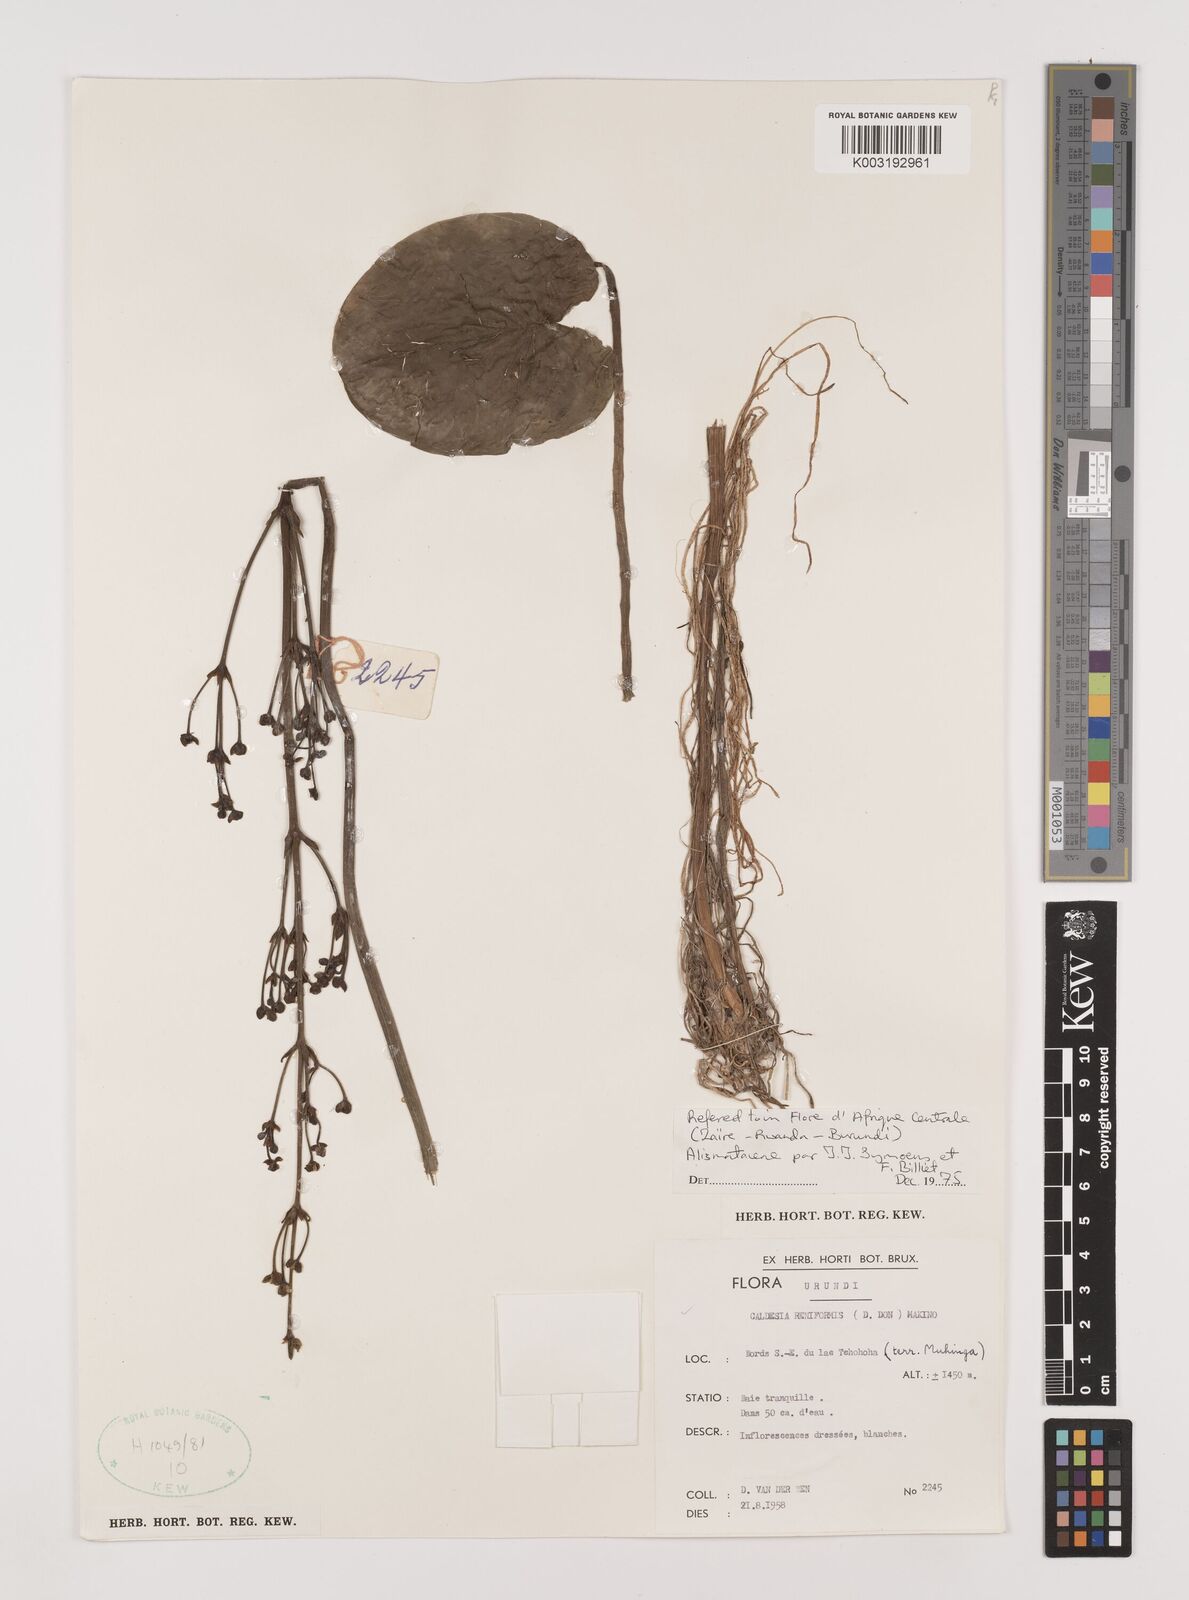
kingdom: Plantae
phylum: Tracheophyta
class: Liliopsida
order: Alismatales
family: Alismataceae
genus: Caldesia
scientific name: Caldesia parnassifolia
